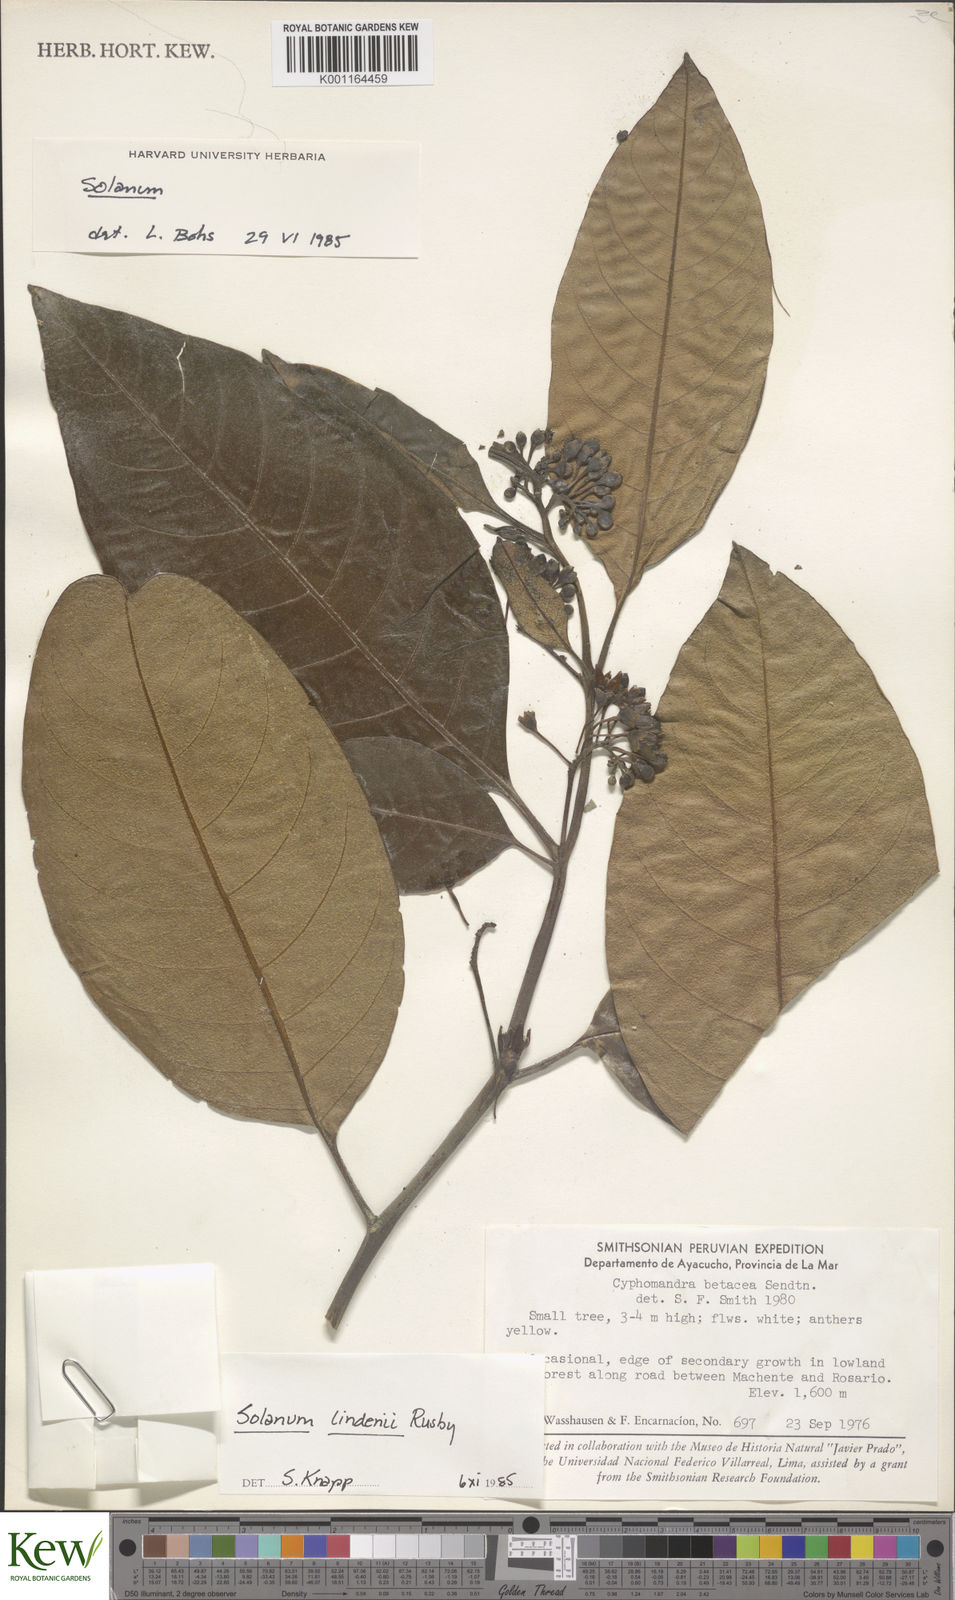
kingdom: Plantae
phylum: Tracheophyta
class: Magnoliopsida
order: Solanales
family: Solanaceae
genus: Solanum
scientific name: Solanum lindenii
